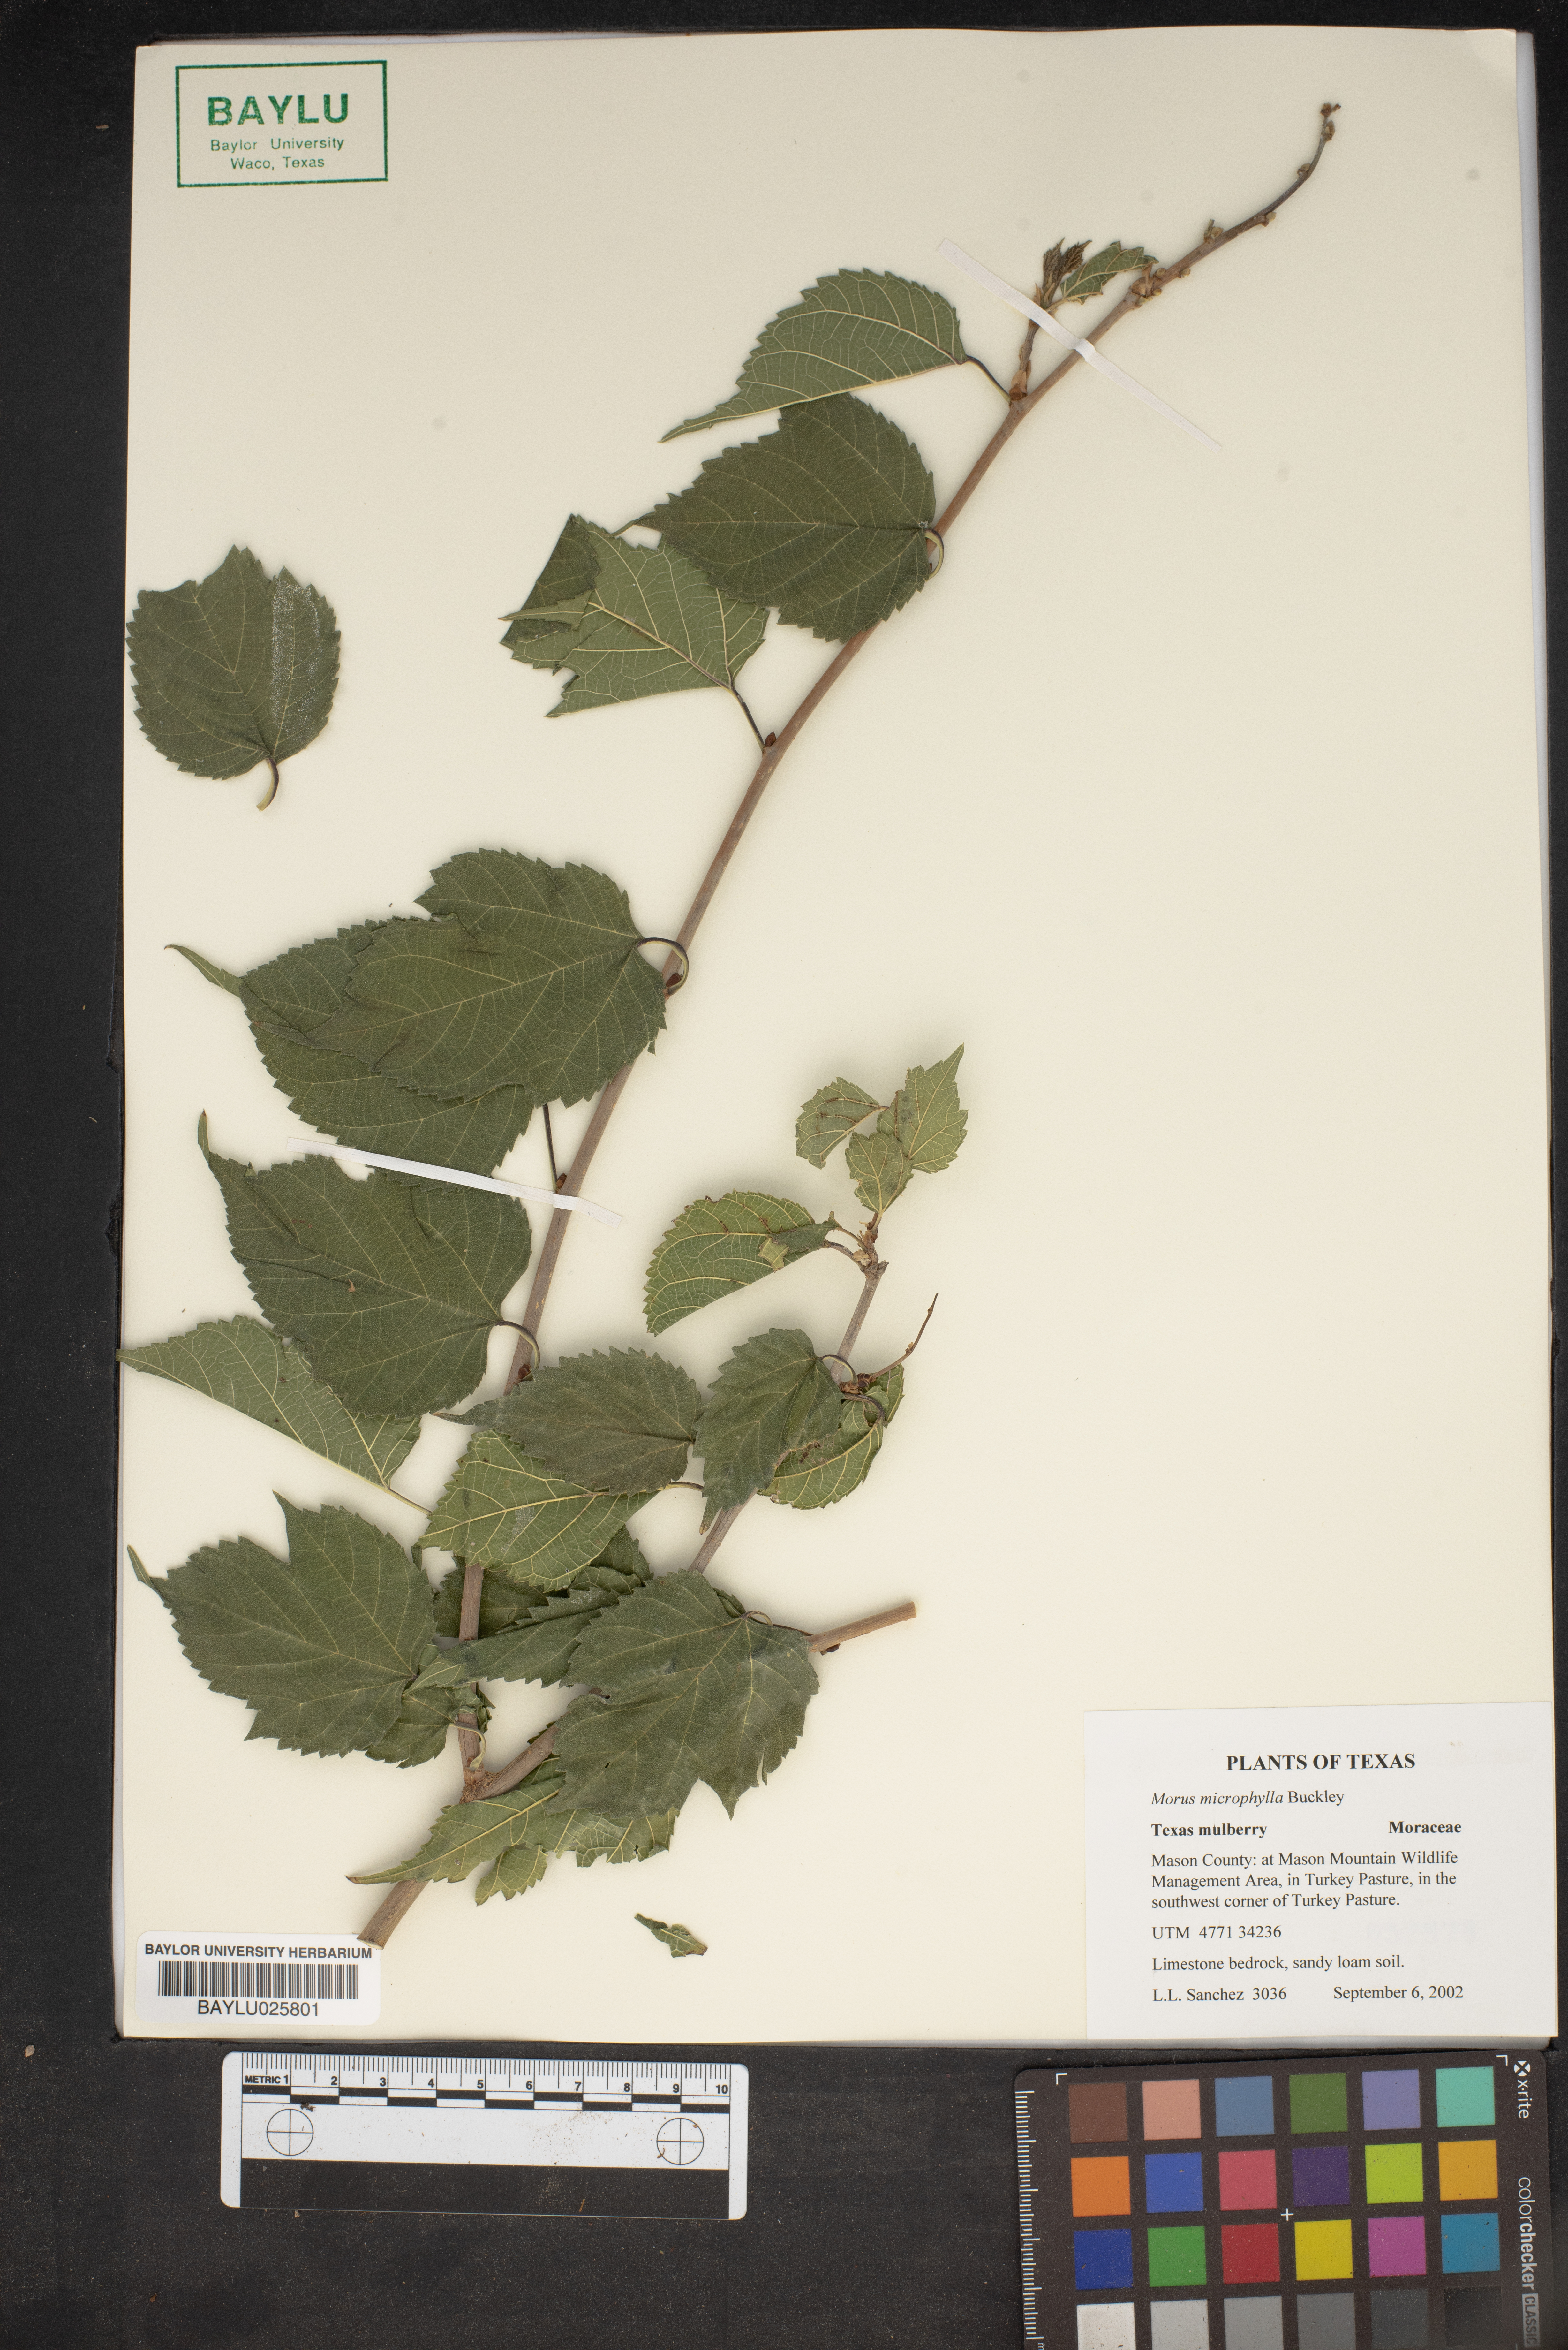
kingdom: Plantae
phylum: Tracheophyta
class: Magnoliopsida
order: Rosales
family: Moraceae
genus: Morus
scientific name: Morus microphylla
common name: Mexican mulberry
